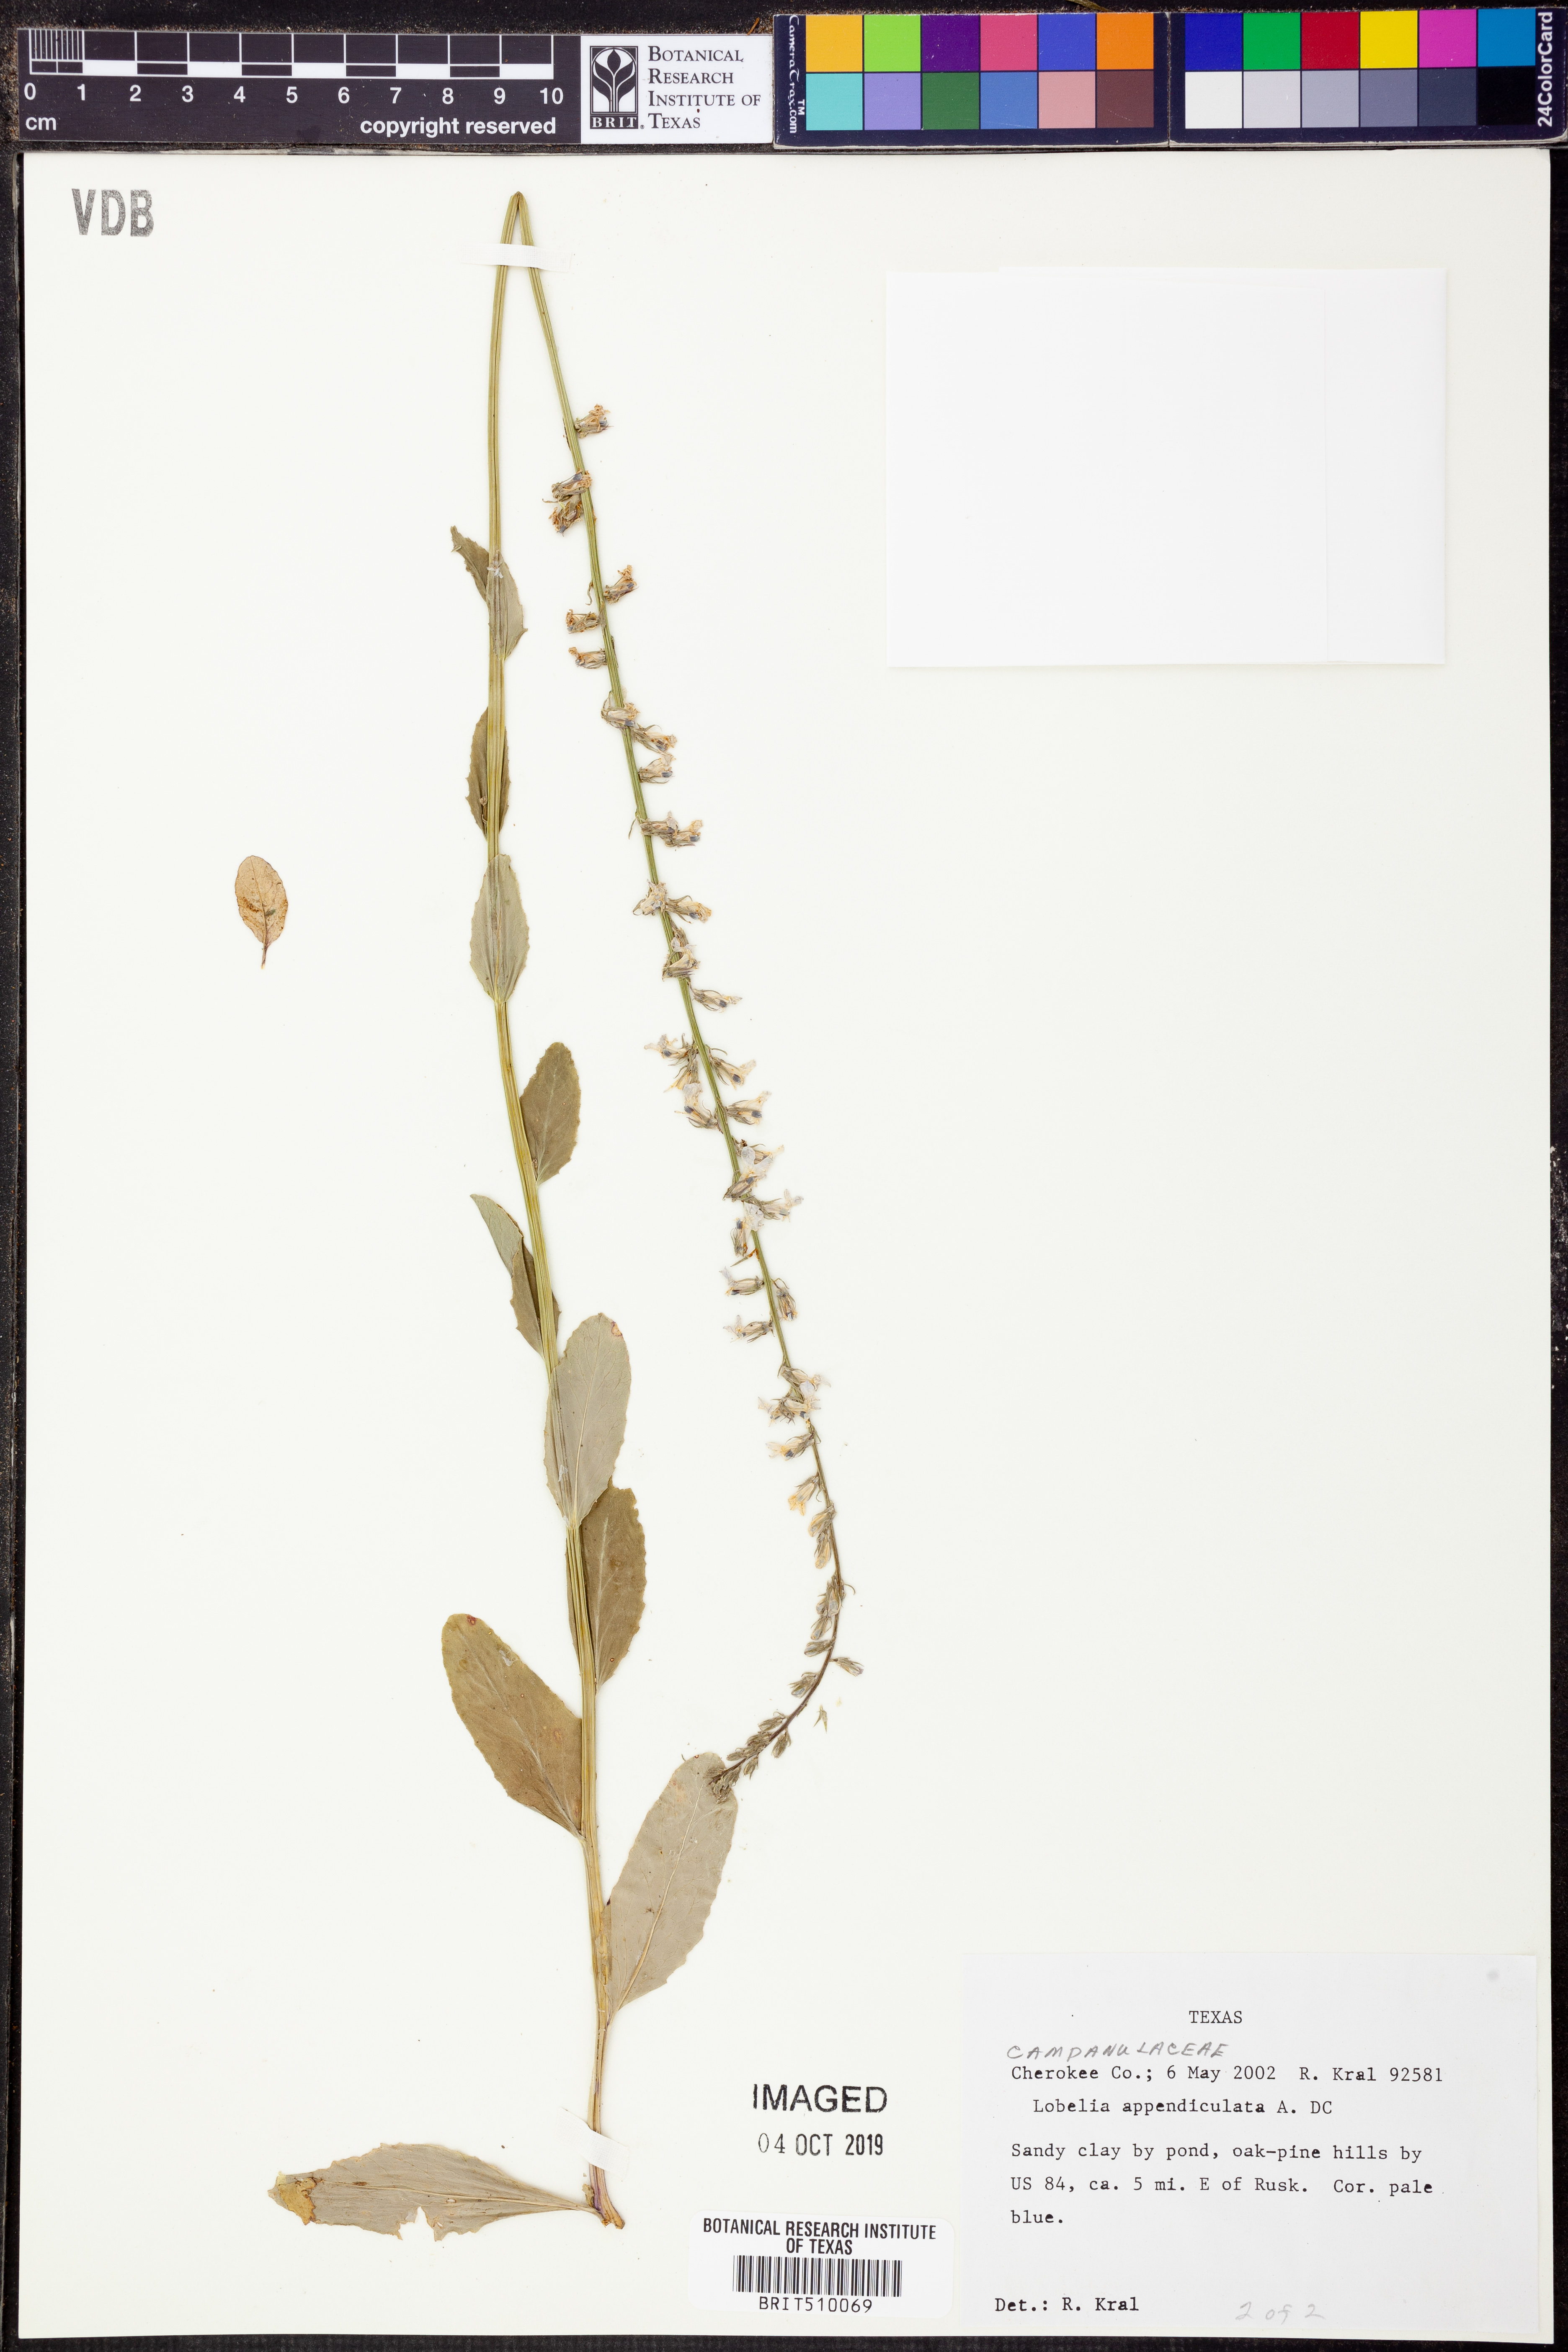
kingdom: Plantae
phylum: Tracheophyta
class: Magnoliopsida
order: Asterales
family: Campanulaceae
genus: Lobelia
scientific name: Lobelia appendiculata
